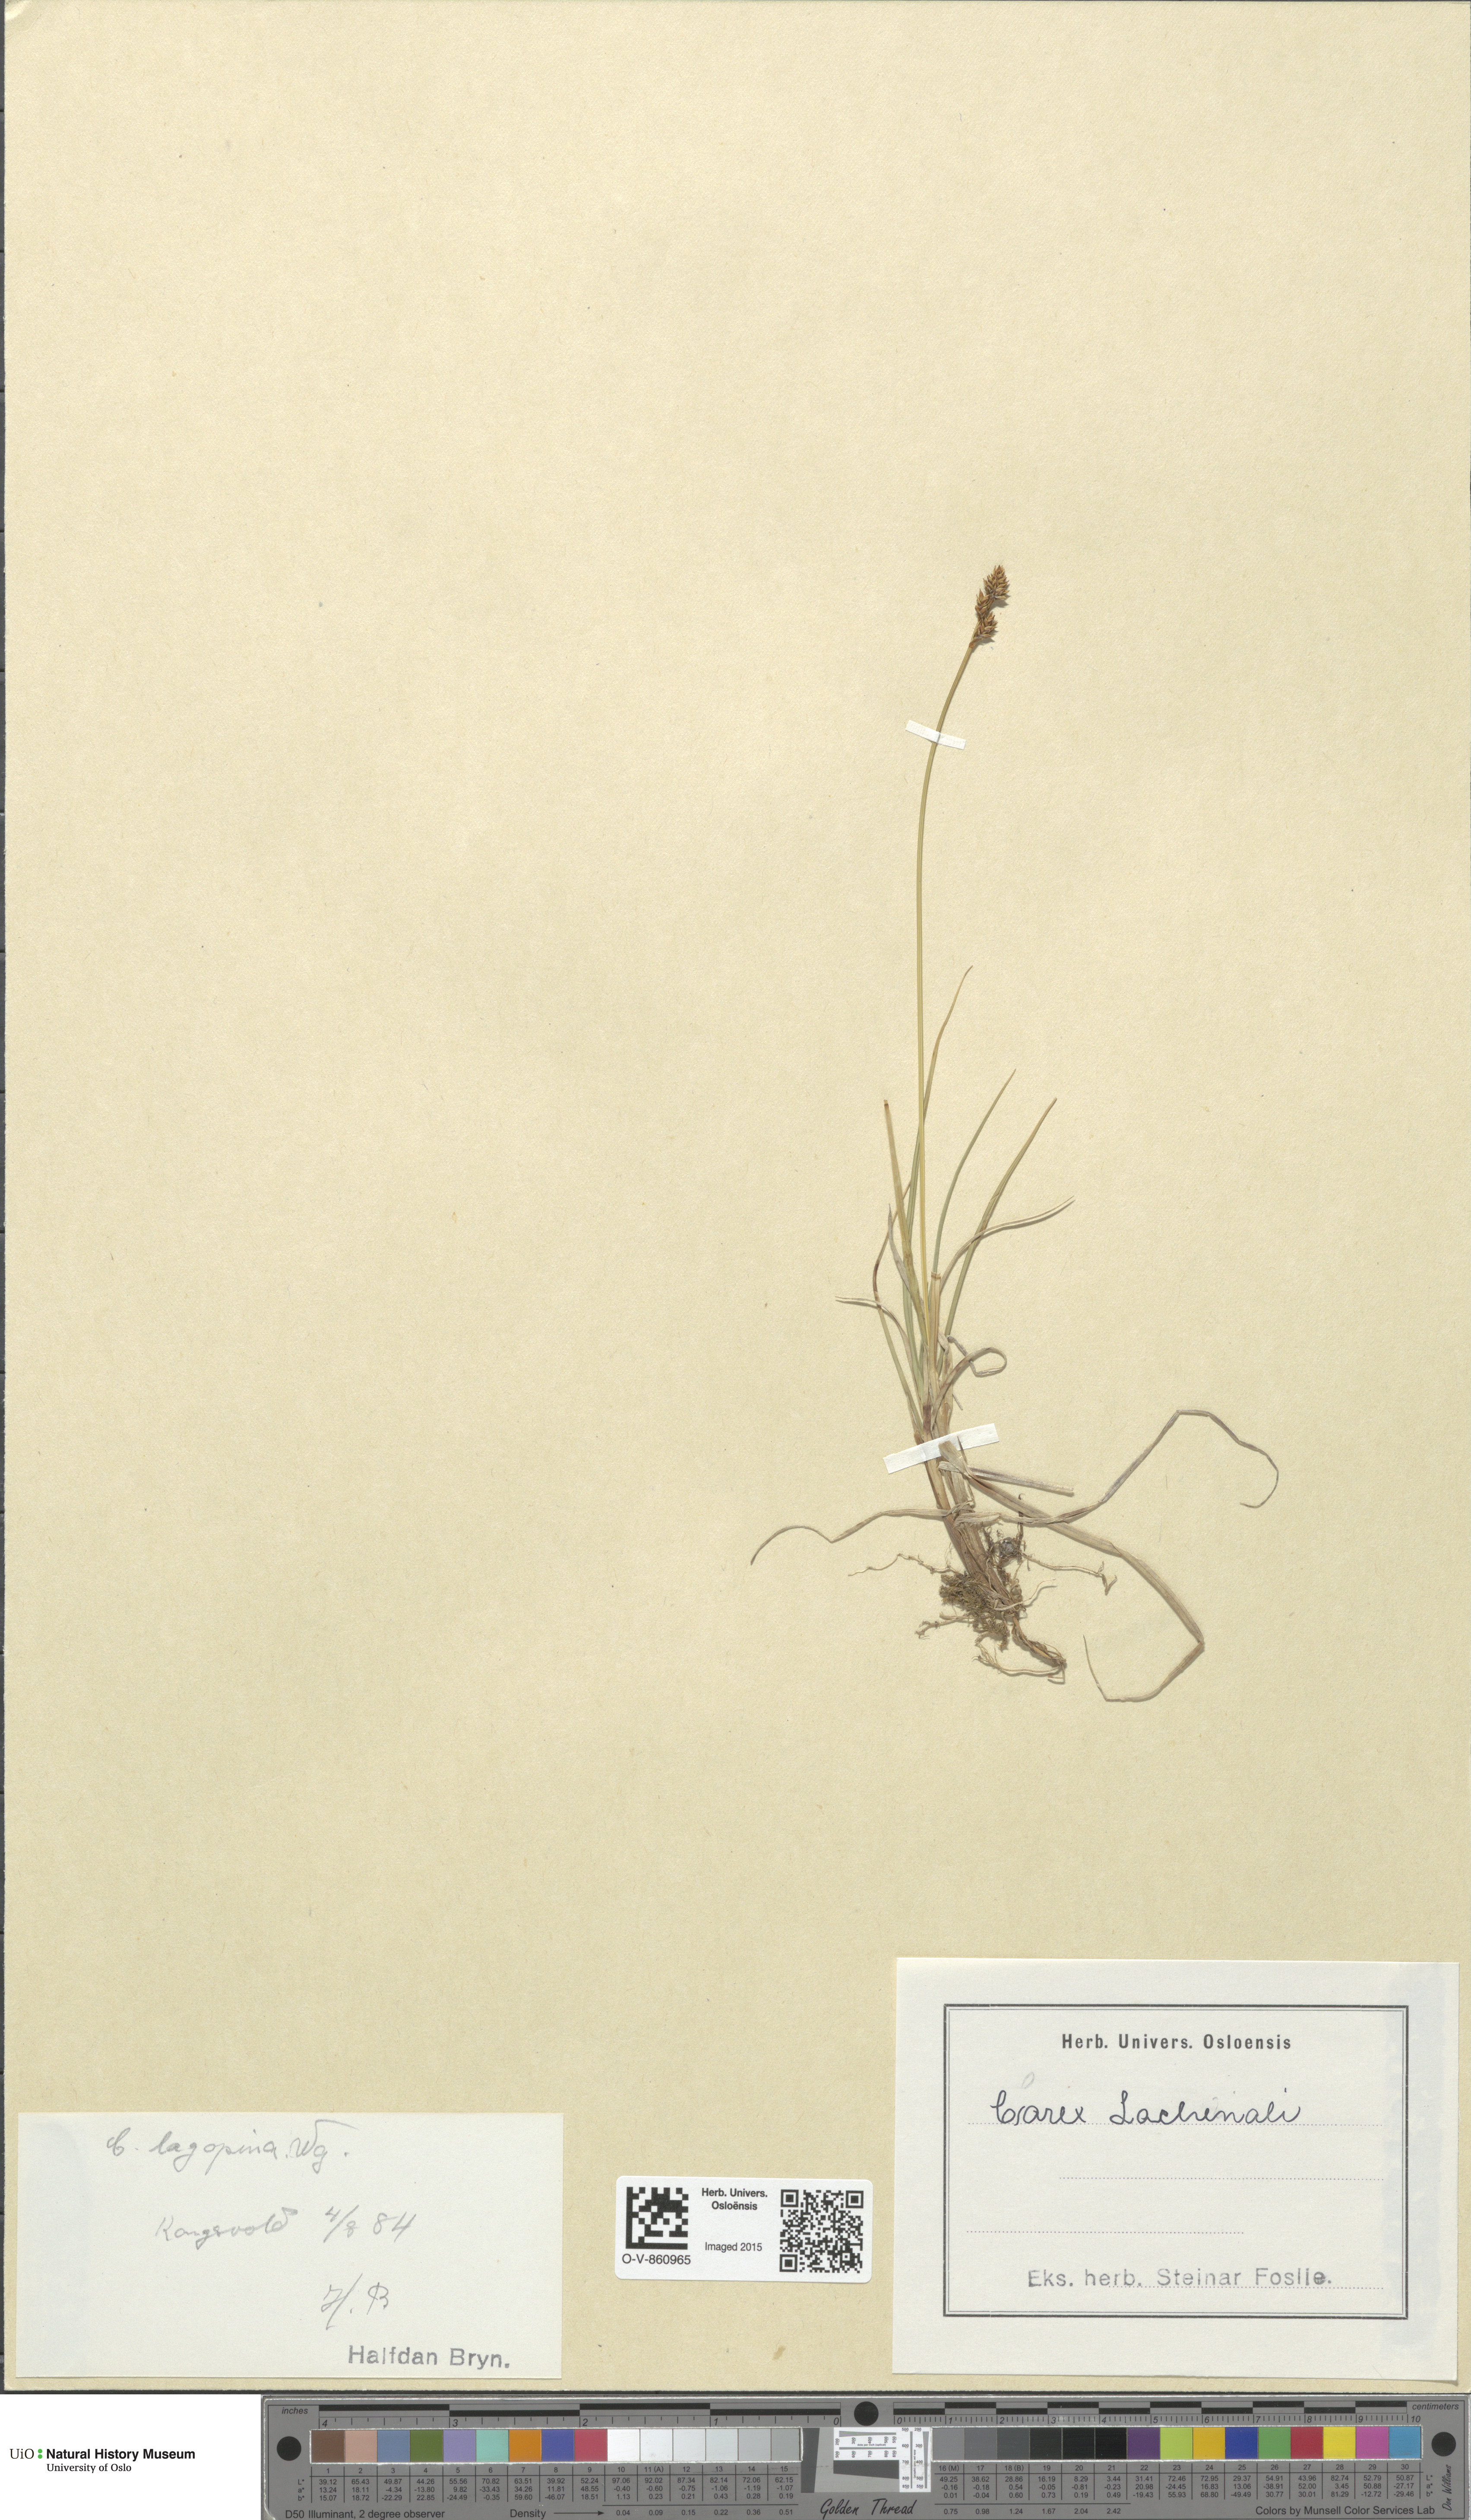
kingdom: Plantae
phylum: Tracheophyta
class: Liliopsida
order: Poales
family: Cyperaceae
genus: Carex
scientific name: Carex lachenalii
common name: Hare's-foot sedge
